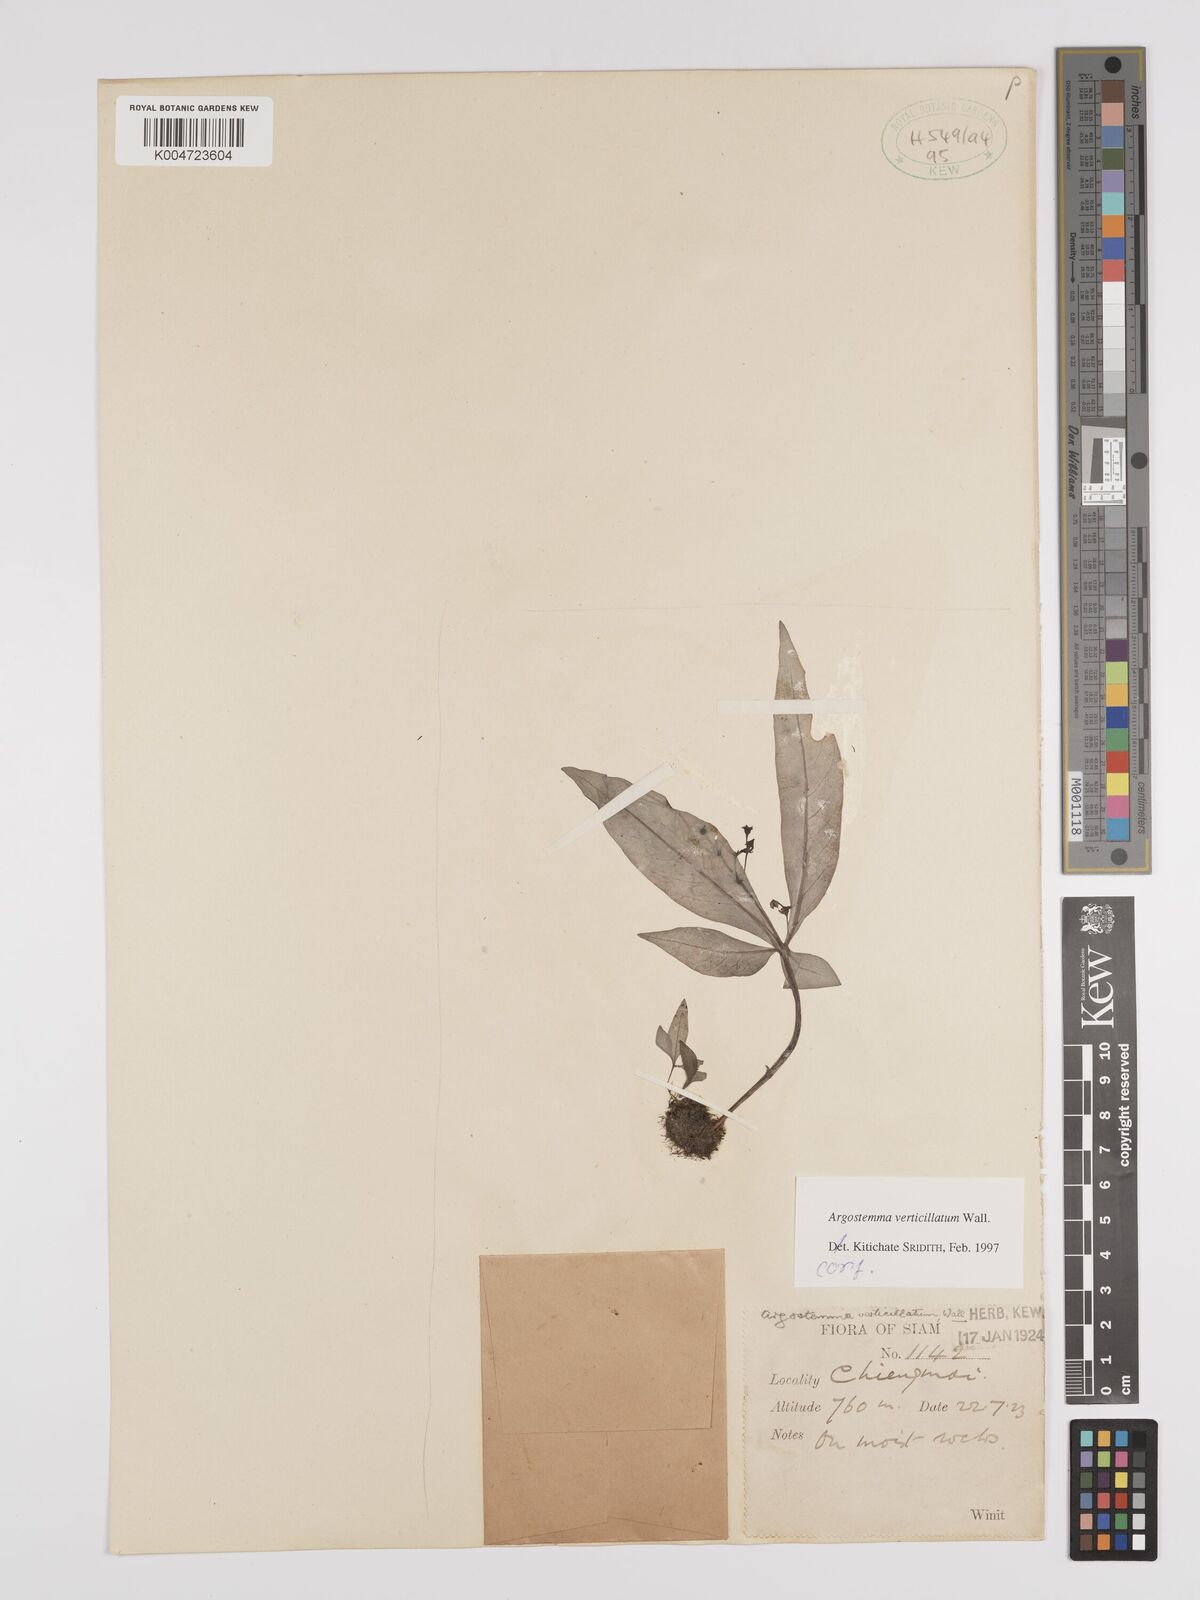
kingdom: Plantae
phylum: Tracheophyta
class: Magnoliopsida
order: Gentianales
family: Rubiaceae
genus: Argostemma
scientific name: Argostemma verticillatum
